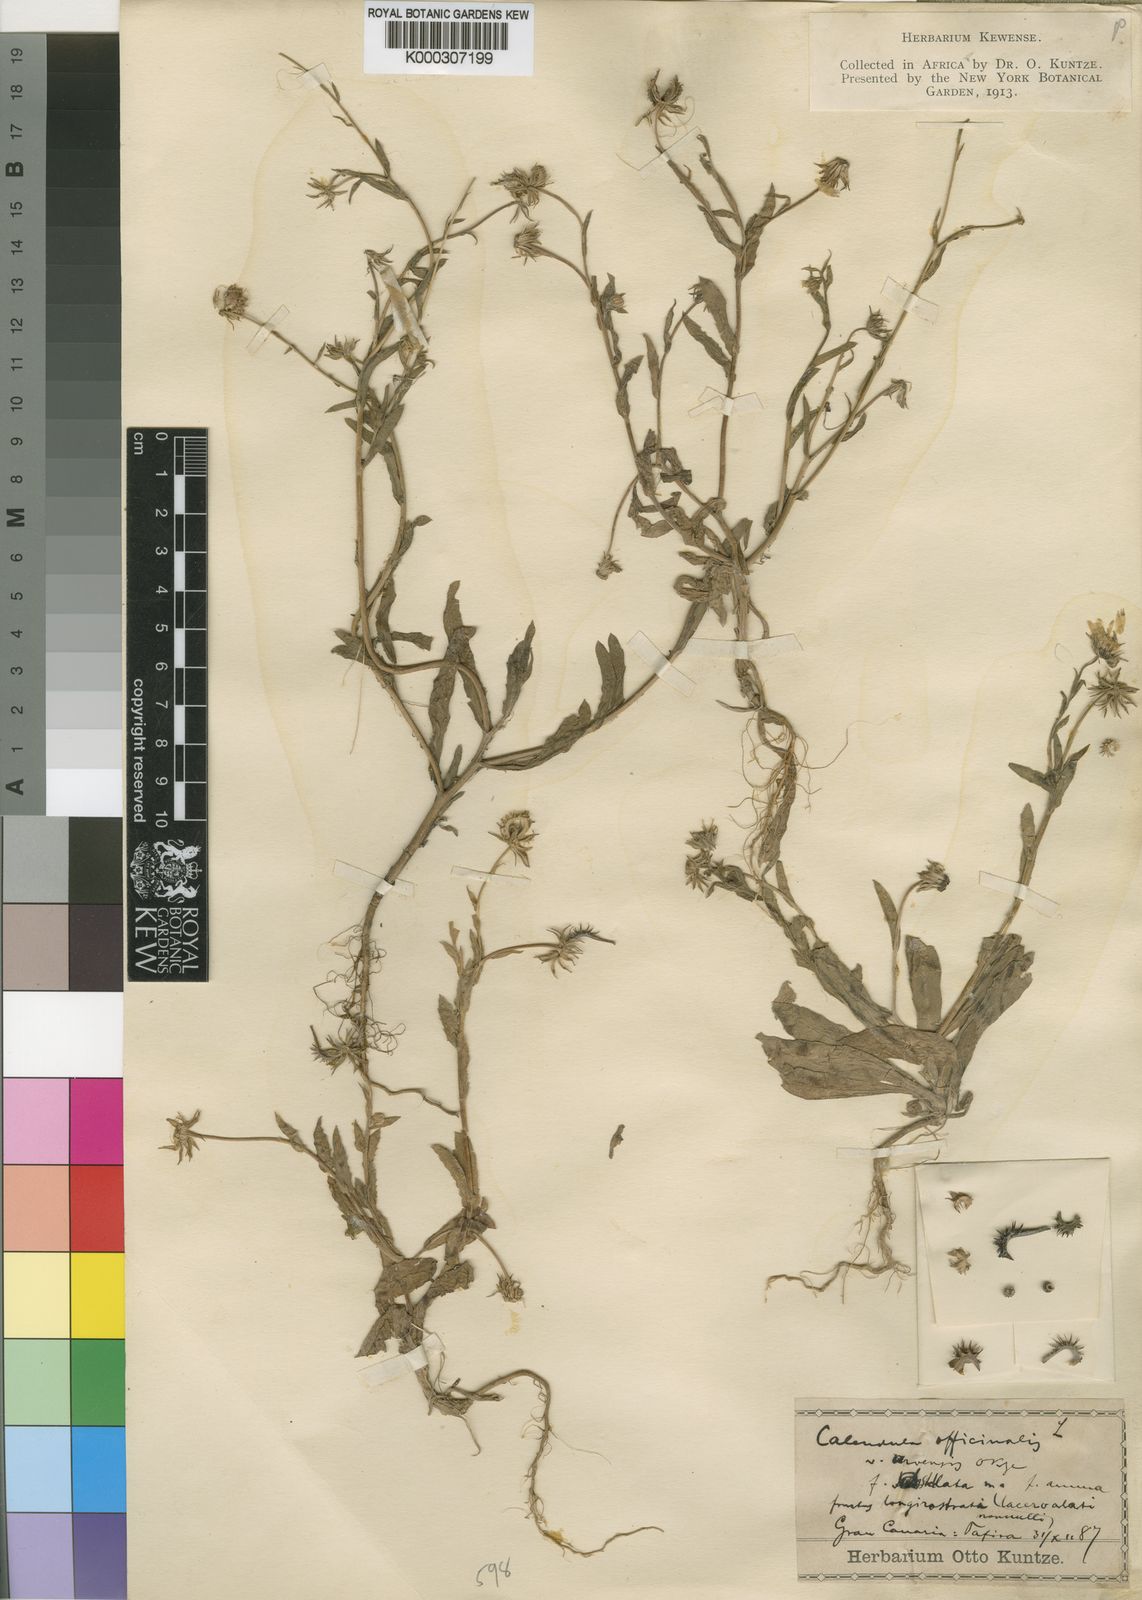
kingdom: Plantae
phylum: Tracheophyta
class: Magnoliopsida
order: Asterales
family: Asteraceae
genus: Calendula
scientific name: Calendula arvensis
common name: Field marigold
